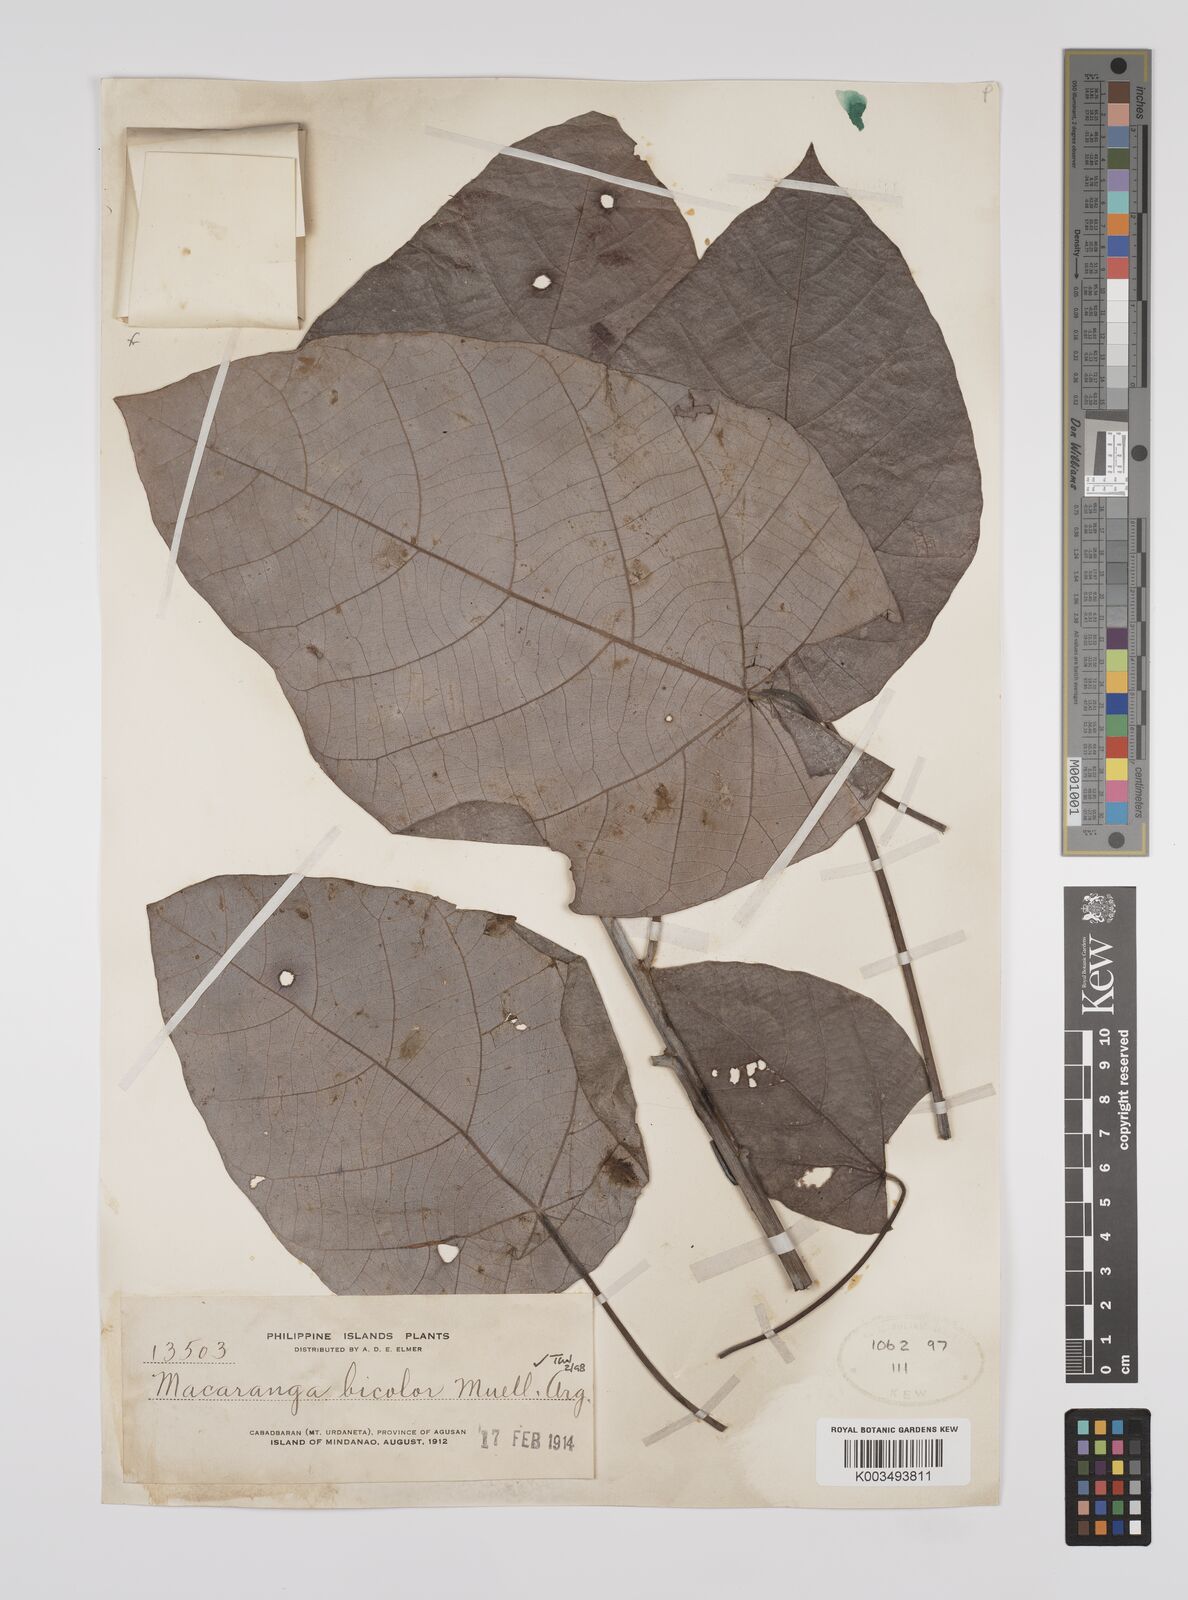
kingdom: Plantae
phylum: Tracheophyta
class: Magnoliopsida
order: Malpighiales
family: Euphorbiaceae
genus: Macaranga
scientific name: Macaranga bicolor
